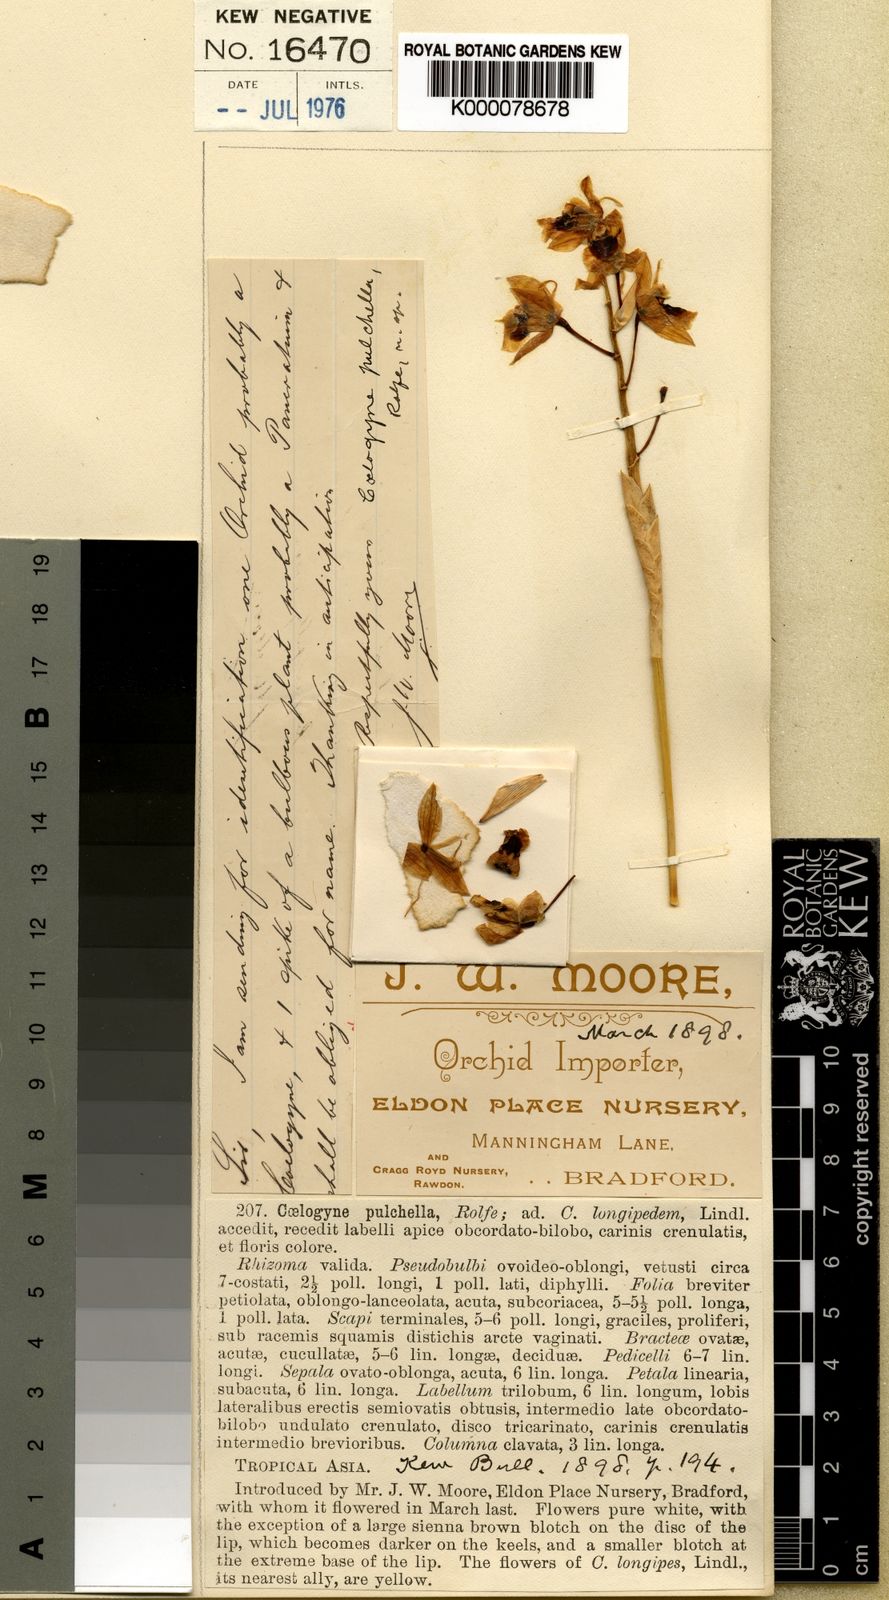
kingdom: Plantae
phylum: Tracheophyta
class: Liliopsida
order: Asparagales
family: Orchidaceae
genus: Coelogyne
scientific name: Coelogyne pulchella
